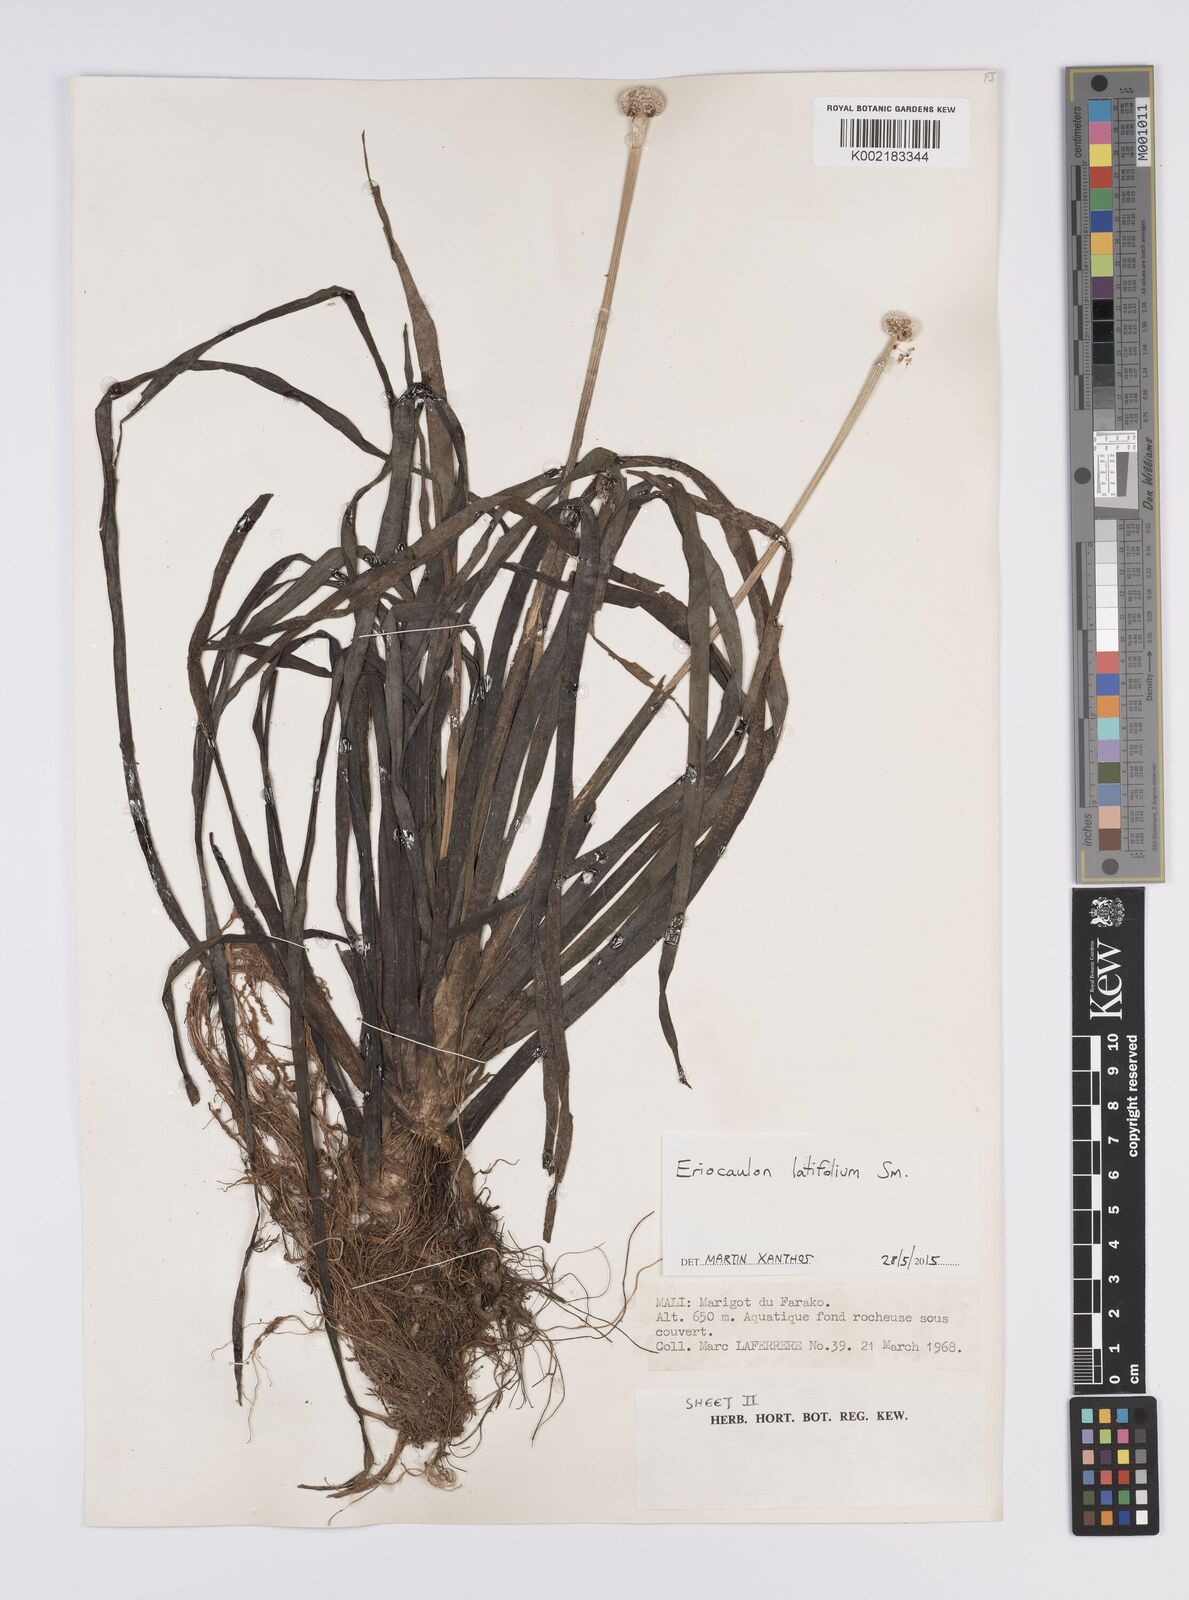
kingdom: Plantae
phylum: Tracheophyta
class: Liliopsida
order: Poales
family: Eriocaulaceae
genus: Eriocaulon
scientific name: Eriocaulon latifolium
